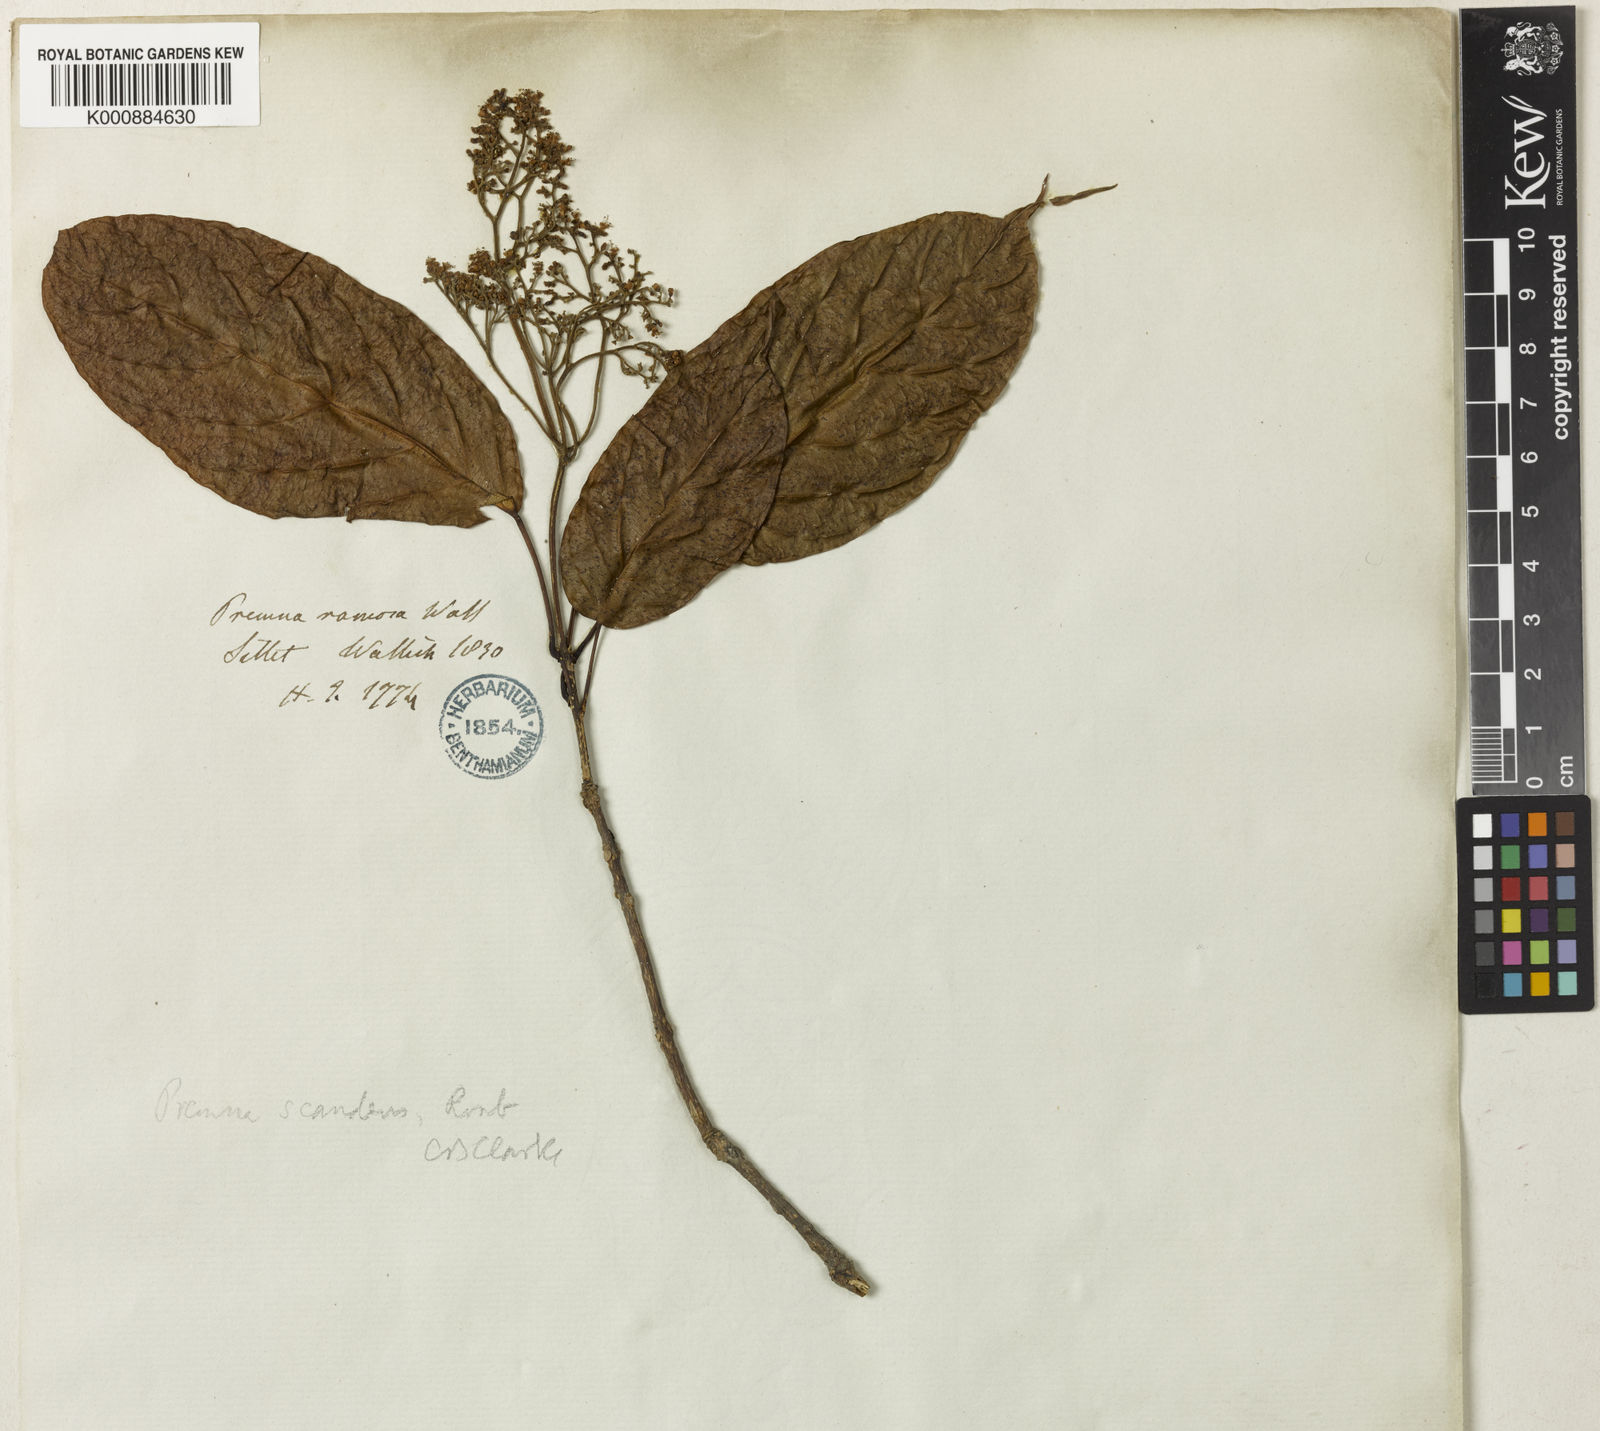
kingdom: Plantae
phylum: Tracheophyta
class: Magnoliopsida
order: Lamiales
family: Lamiaceae
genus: Premna
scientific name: Premna scandens
